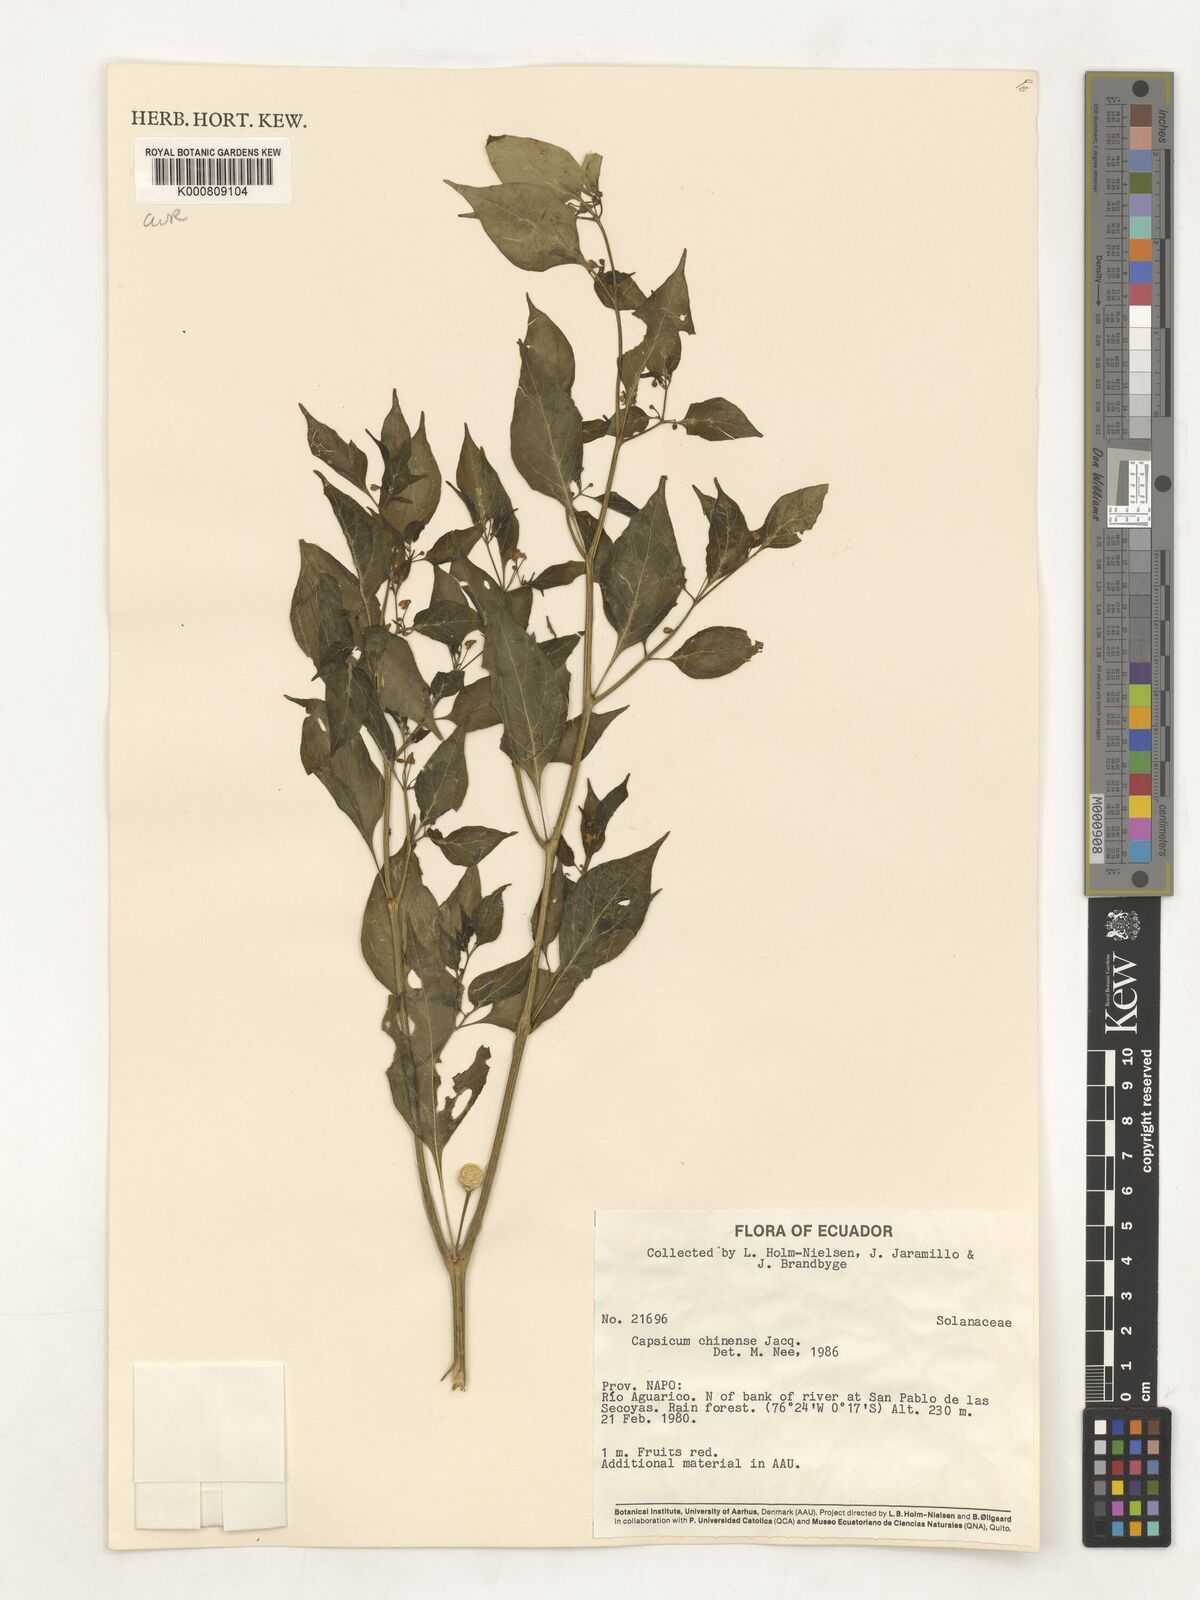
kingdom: Plantae
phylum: Tracheophyta
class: Magnoliopsida
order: Solanales
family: Solanaceae
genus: Capsicum
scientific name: Capsicum chinense
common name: Yellow squash pepper
